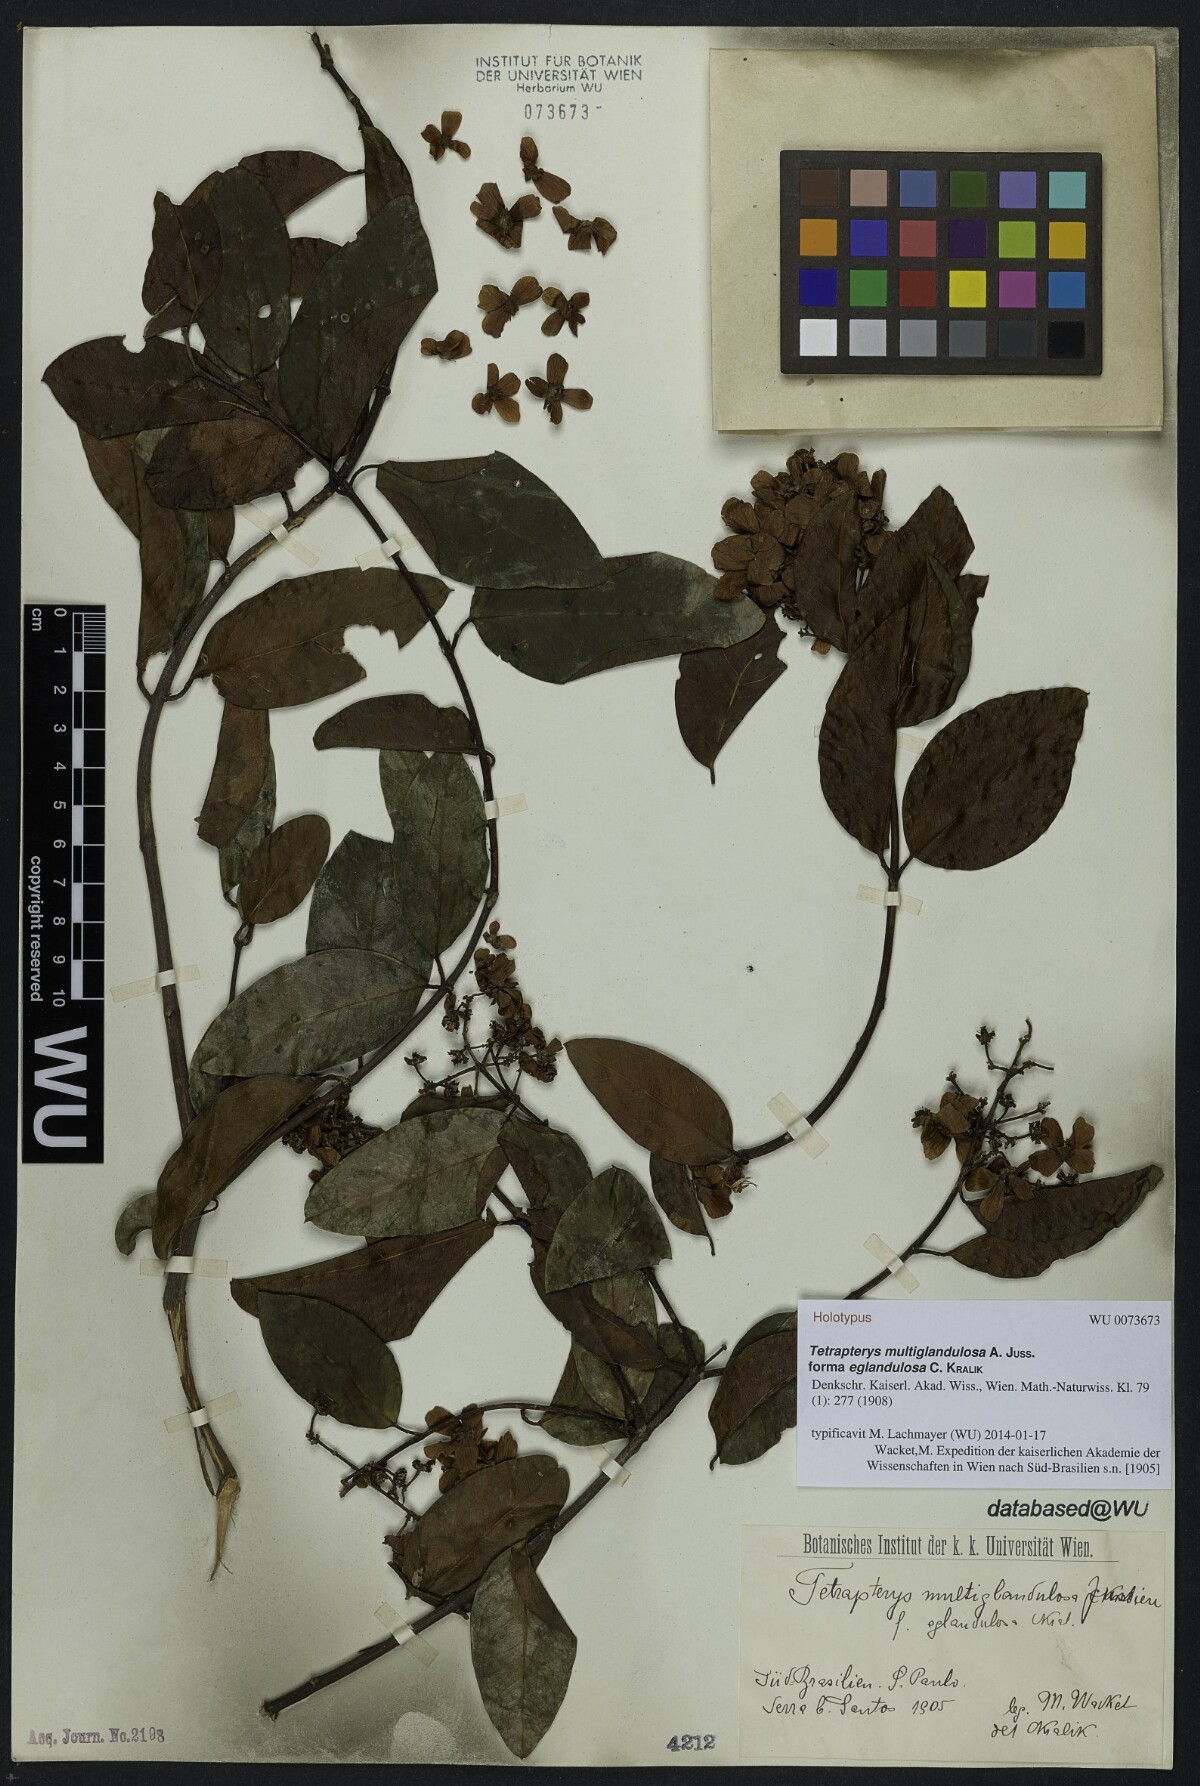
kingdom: Plantae
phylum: Tracheophyta
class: Magnoliopsida
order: Malpighiales
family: Malpighiaceae
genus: Niedenzuella
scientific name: Niedenzuella multiglandulosa
